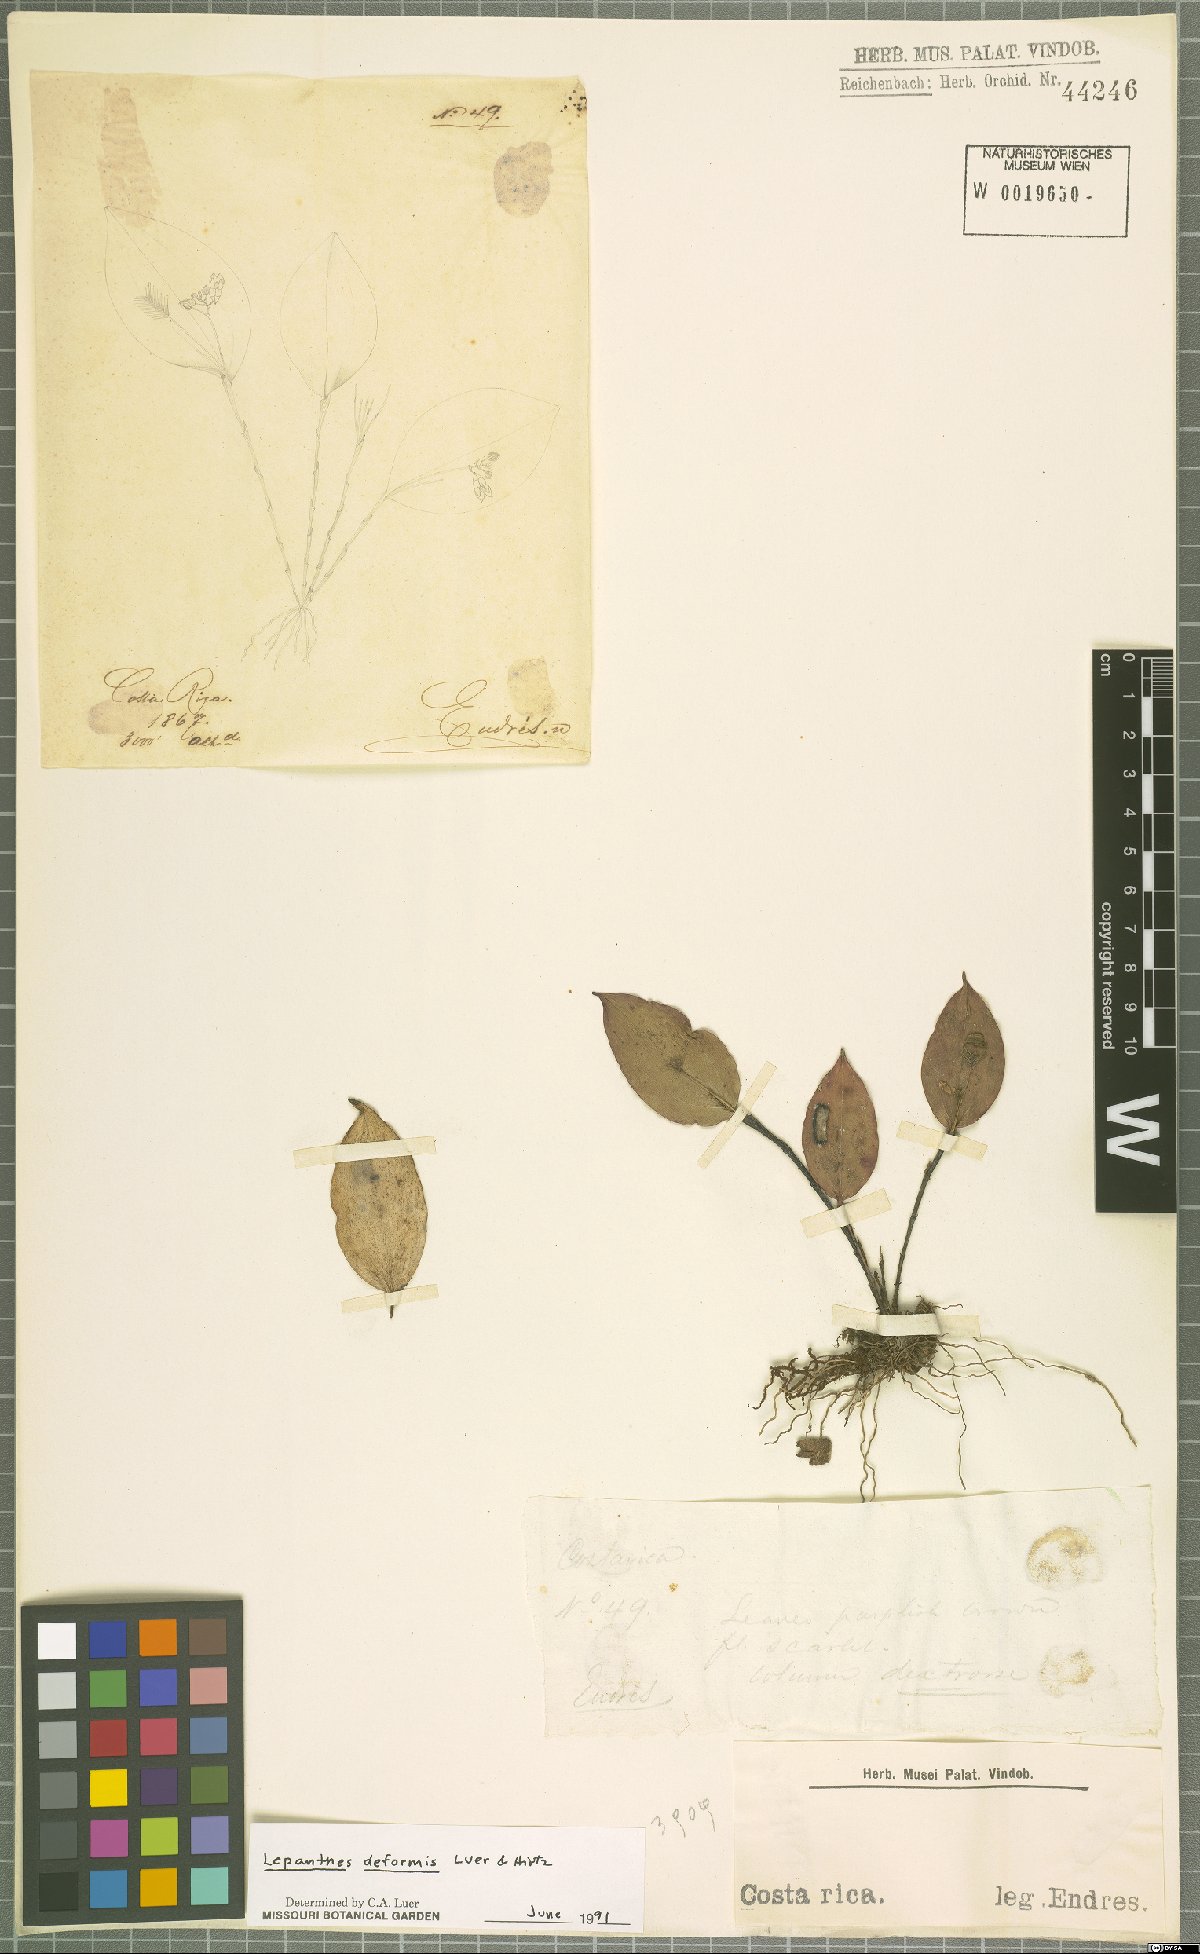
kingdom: Plantae
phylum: Tracheophyta
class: Liliopsida
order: Asparagales
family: Orchidaceae
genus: Lepanthes
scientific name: Lepanthes deformis
